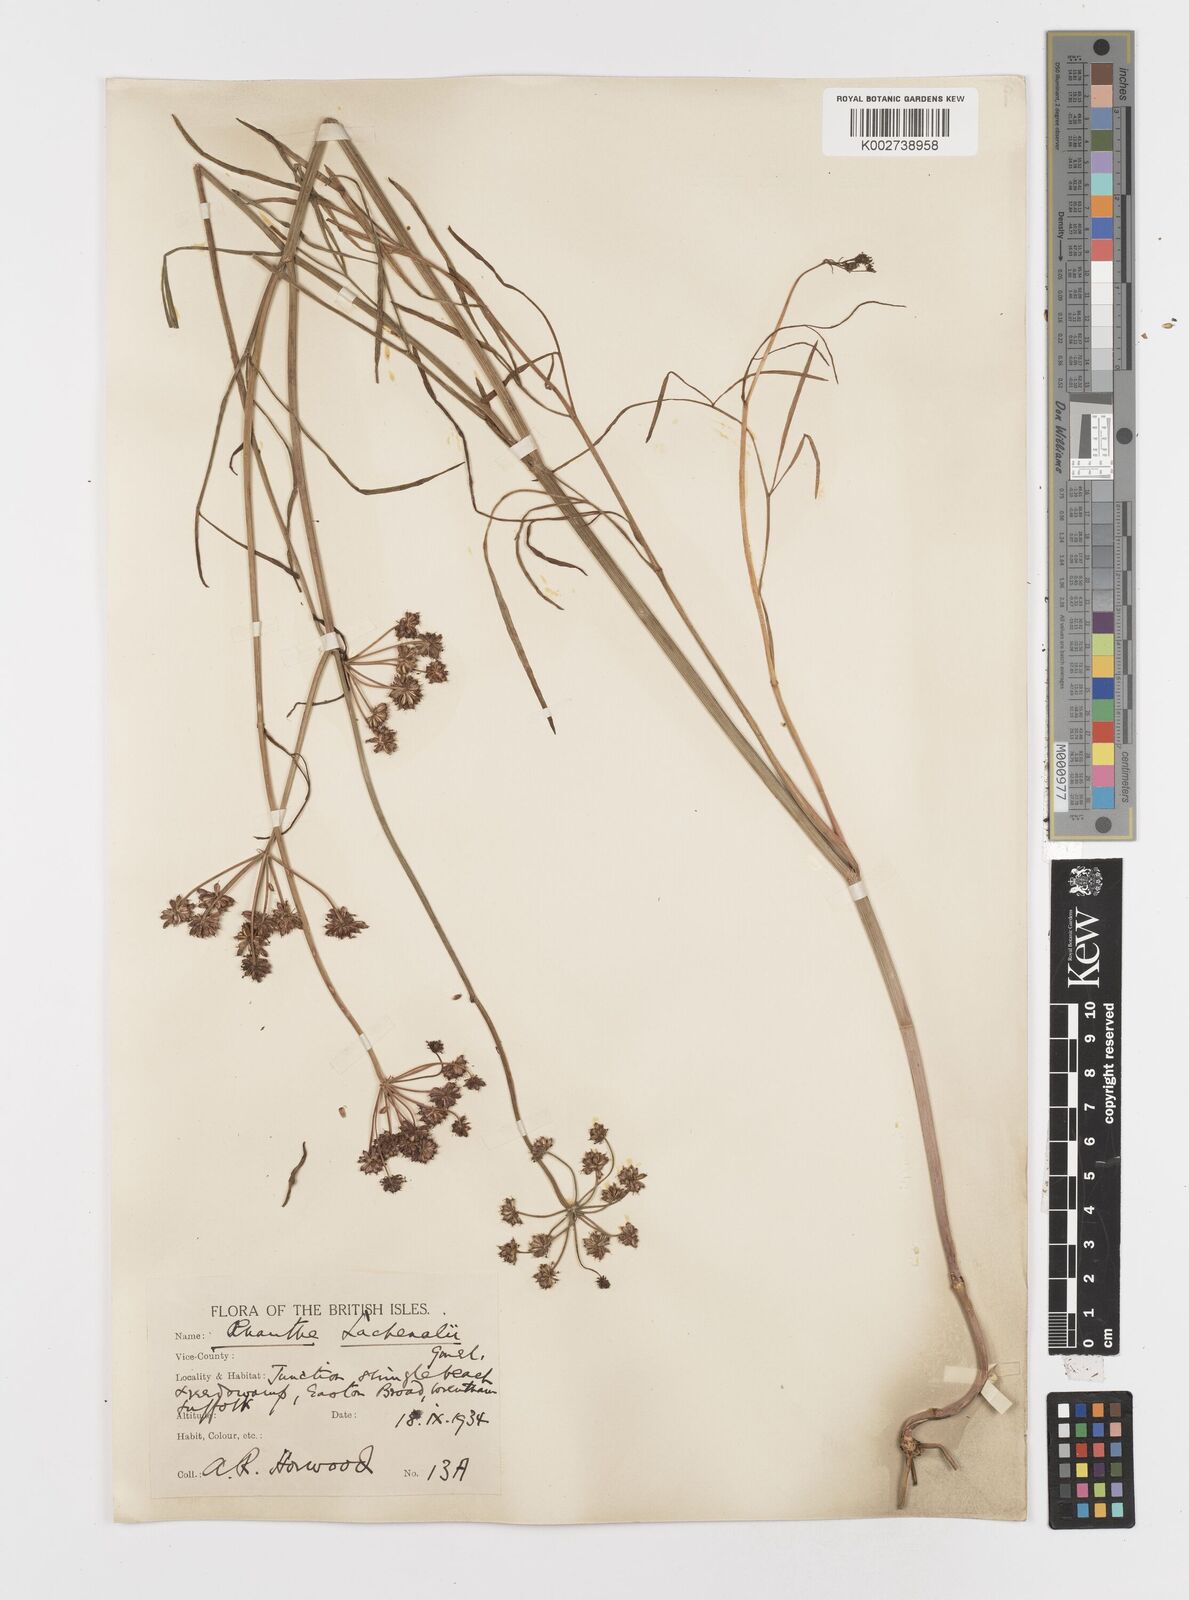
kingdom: Plantae
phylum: Tracheophyta
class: Magnoliopsida
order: Apiales
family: Apiaceae
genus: Oenanthe
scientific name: Oenanthe lachenalii
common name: Parsley water-dropwort
